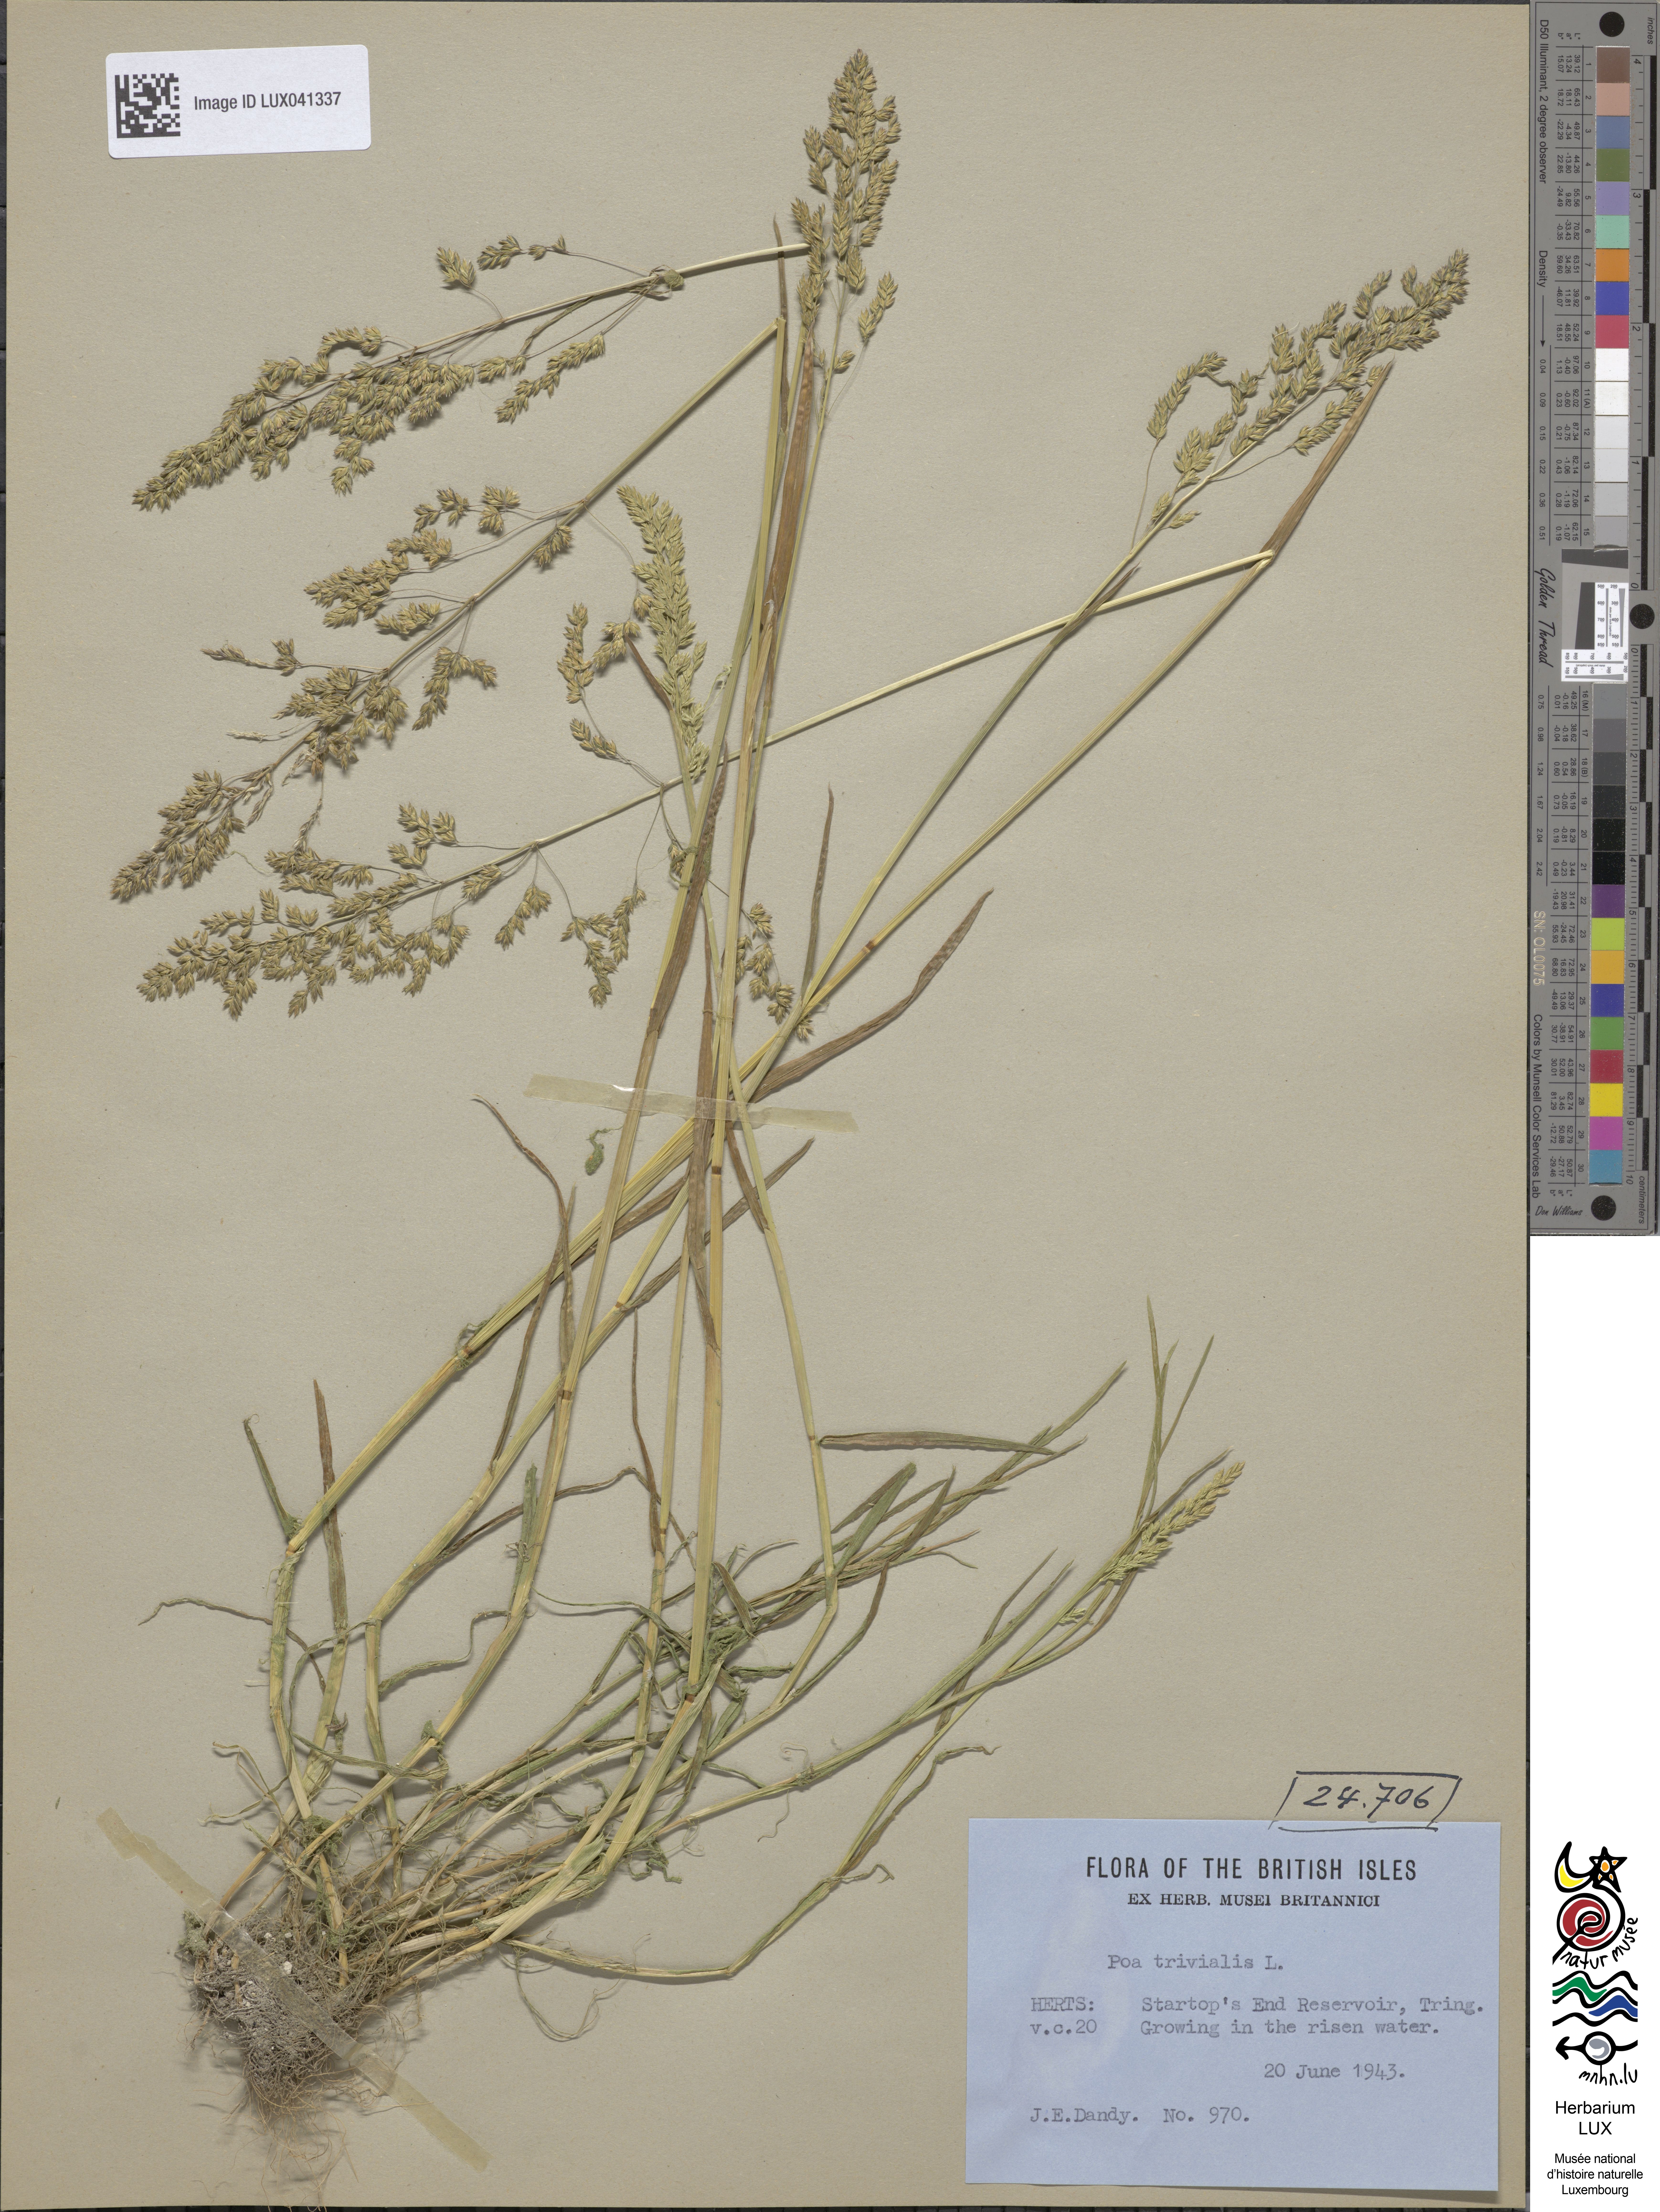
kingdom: Plantae
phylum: Tracheophyta
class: Liliopsida
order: Poales
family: Poaceae
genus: Poa
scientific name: Poa trivialis
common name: Rough bluegrass
